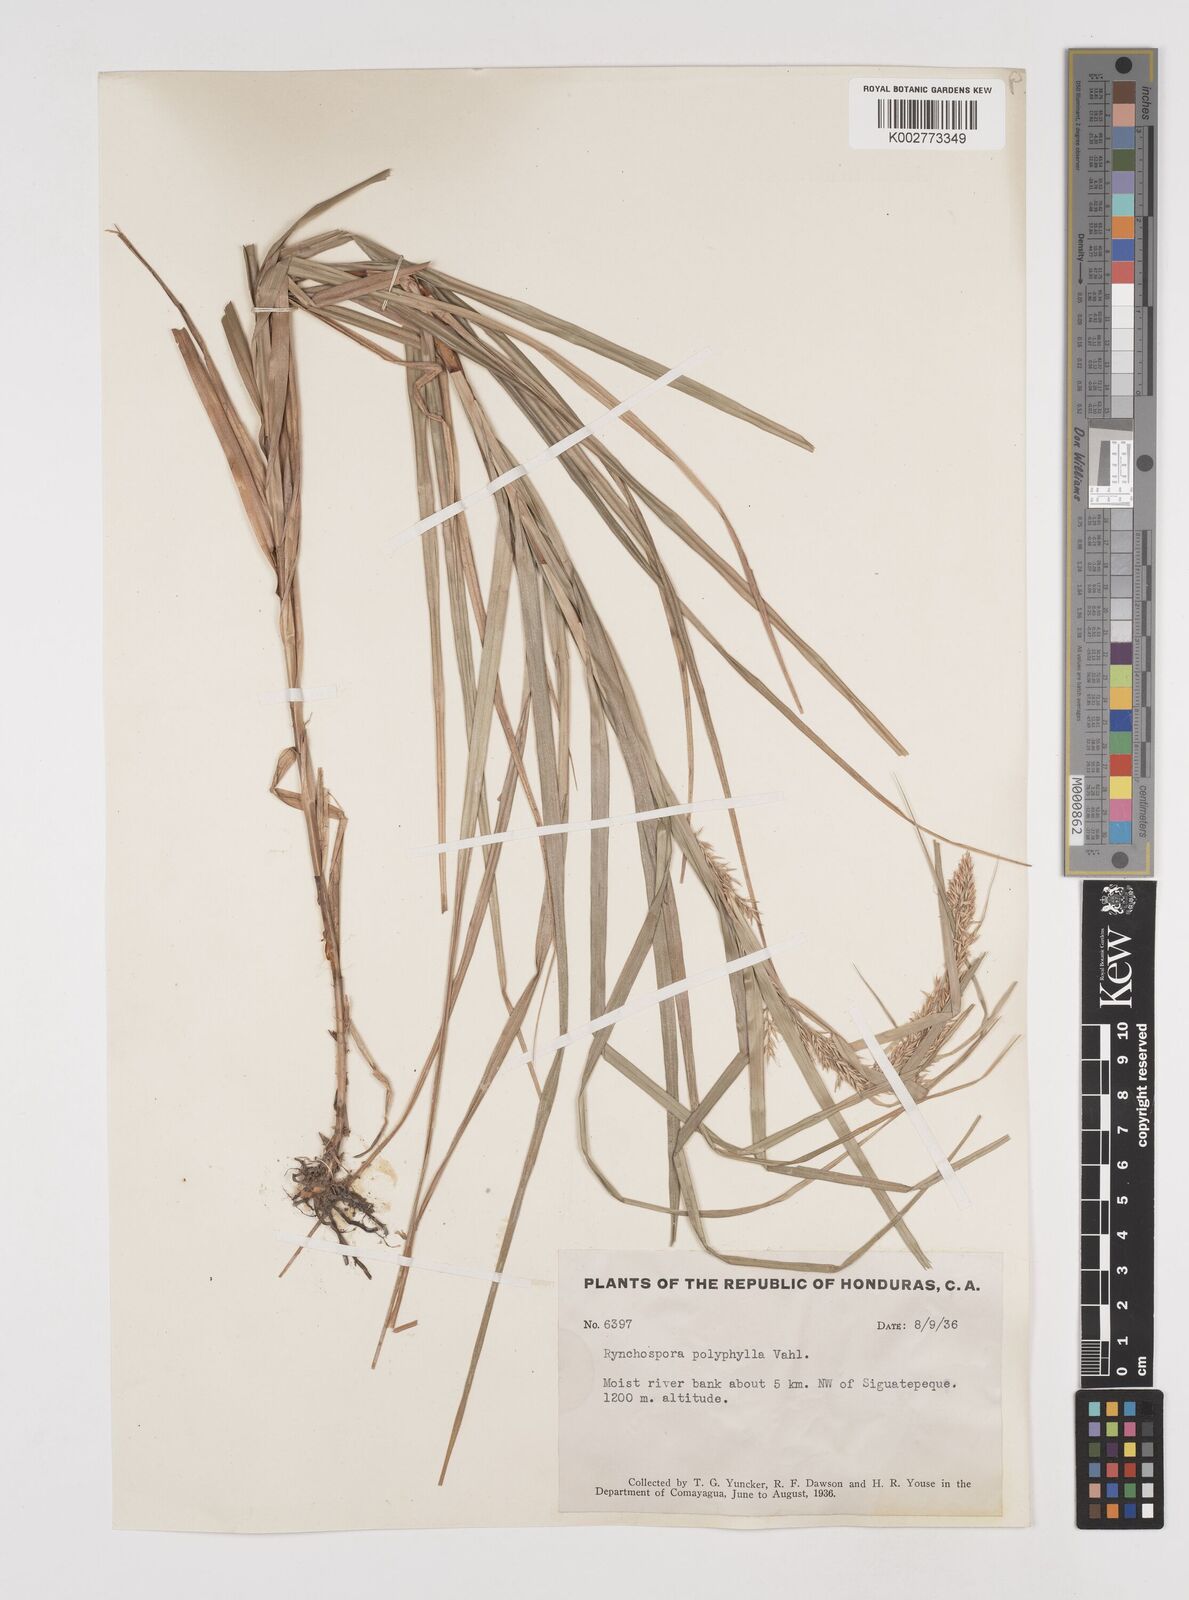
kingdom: Plantae
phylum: Tracheophyta
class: Liliopsida
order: Poales
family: Cyperaceae
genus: Rhynchospora
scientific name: Rhynchospora polyphylla
